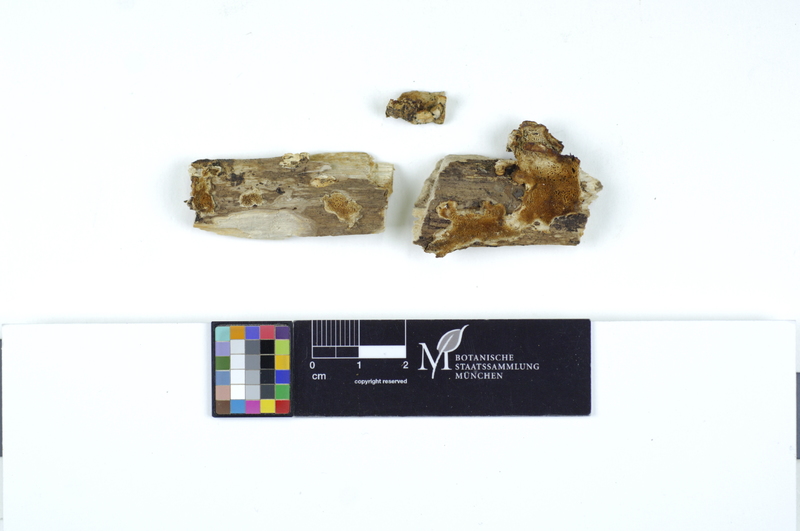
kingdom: Plantae
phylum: Tracheophyta
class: Magnoliopsida
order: Malpighiales
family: Salicaceae
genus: Salix
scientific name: Salix cinerea
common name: Common sallow
